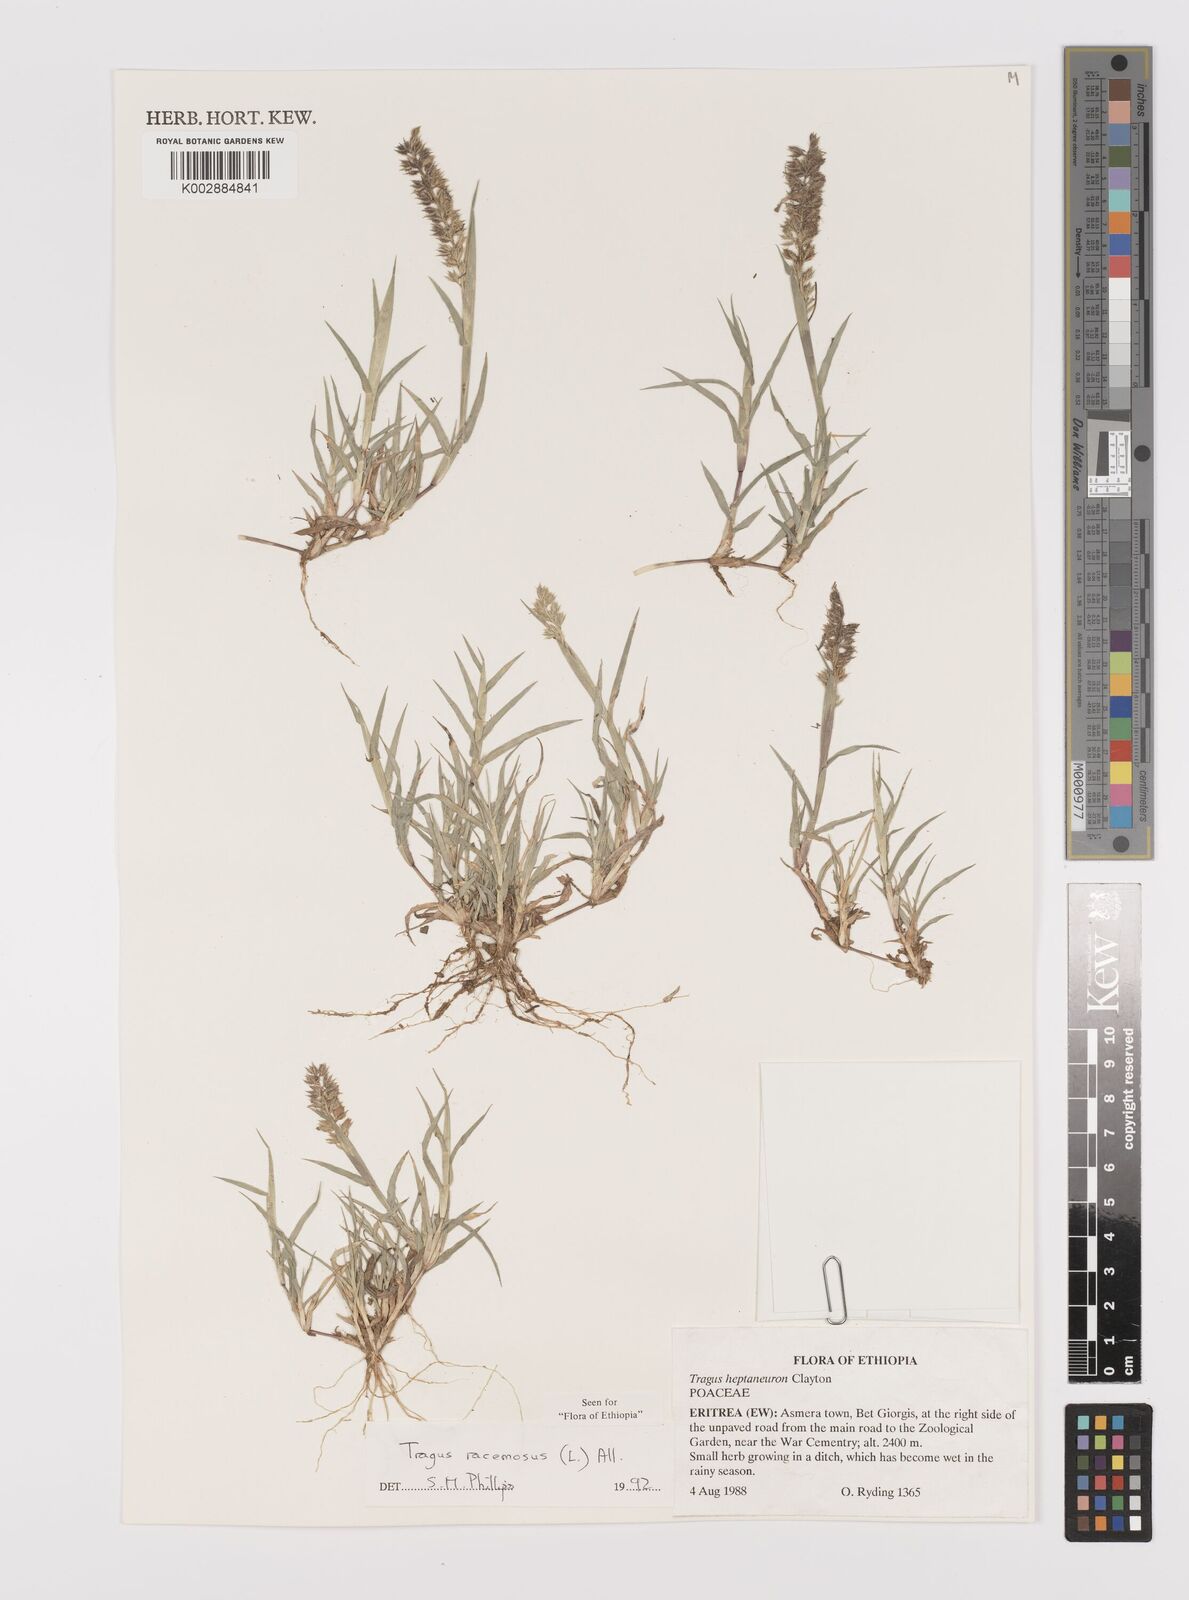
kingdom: Plantae
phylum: Tracheophyta
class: Liliopsida
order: Poales
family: Poaceae
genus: Tragus
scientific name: Tragus racemosus
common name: European bur-grass
